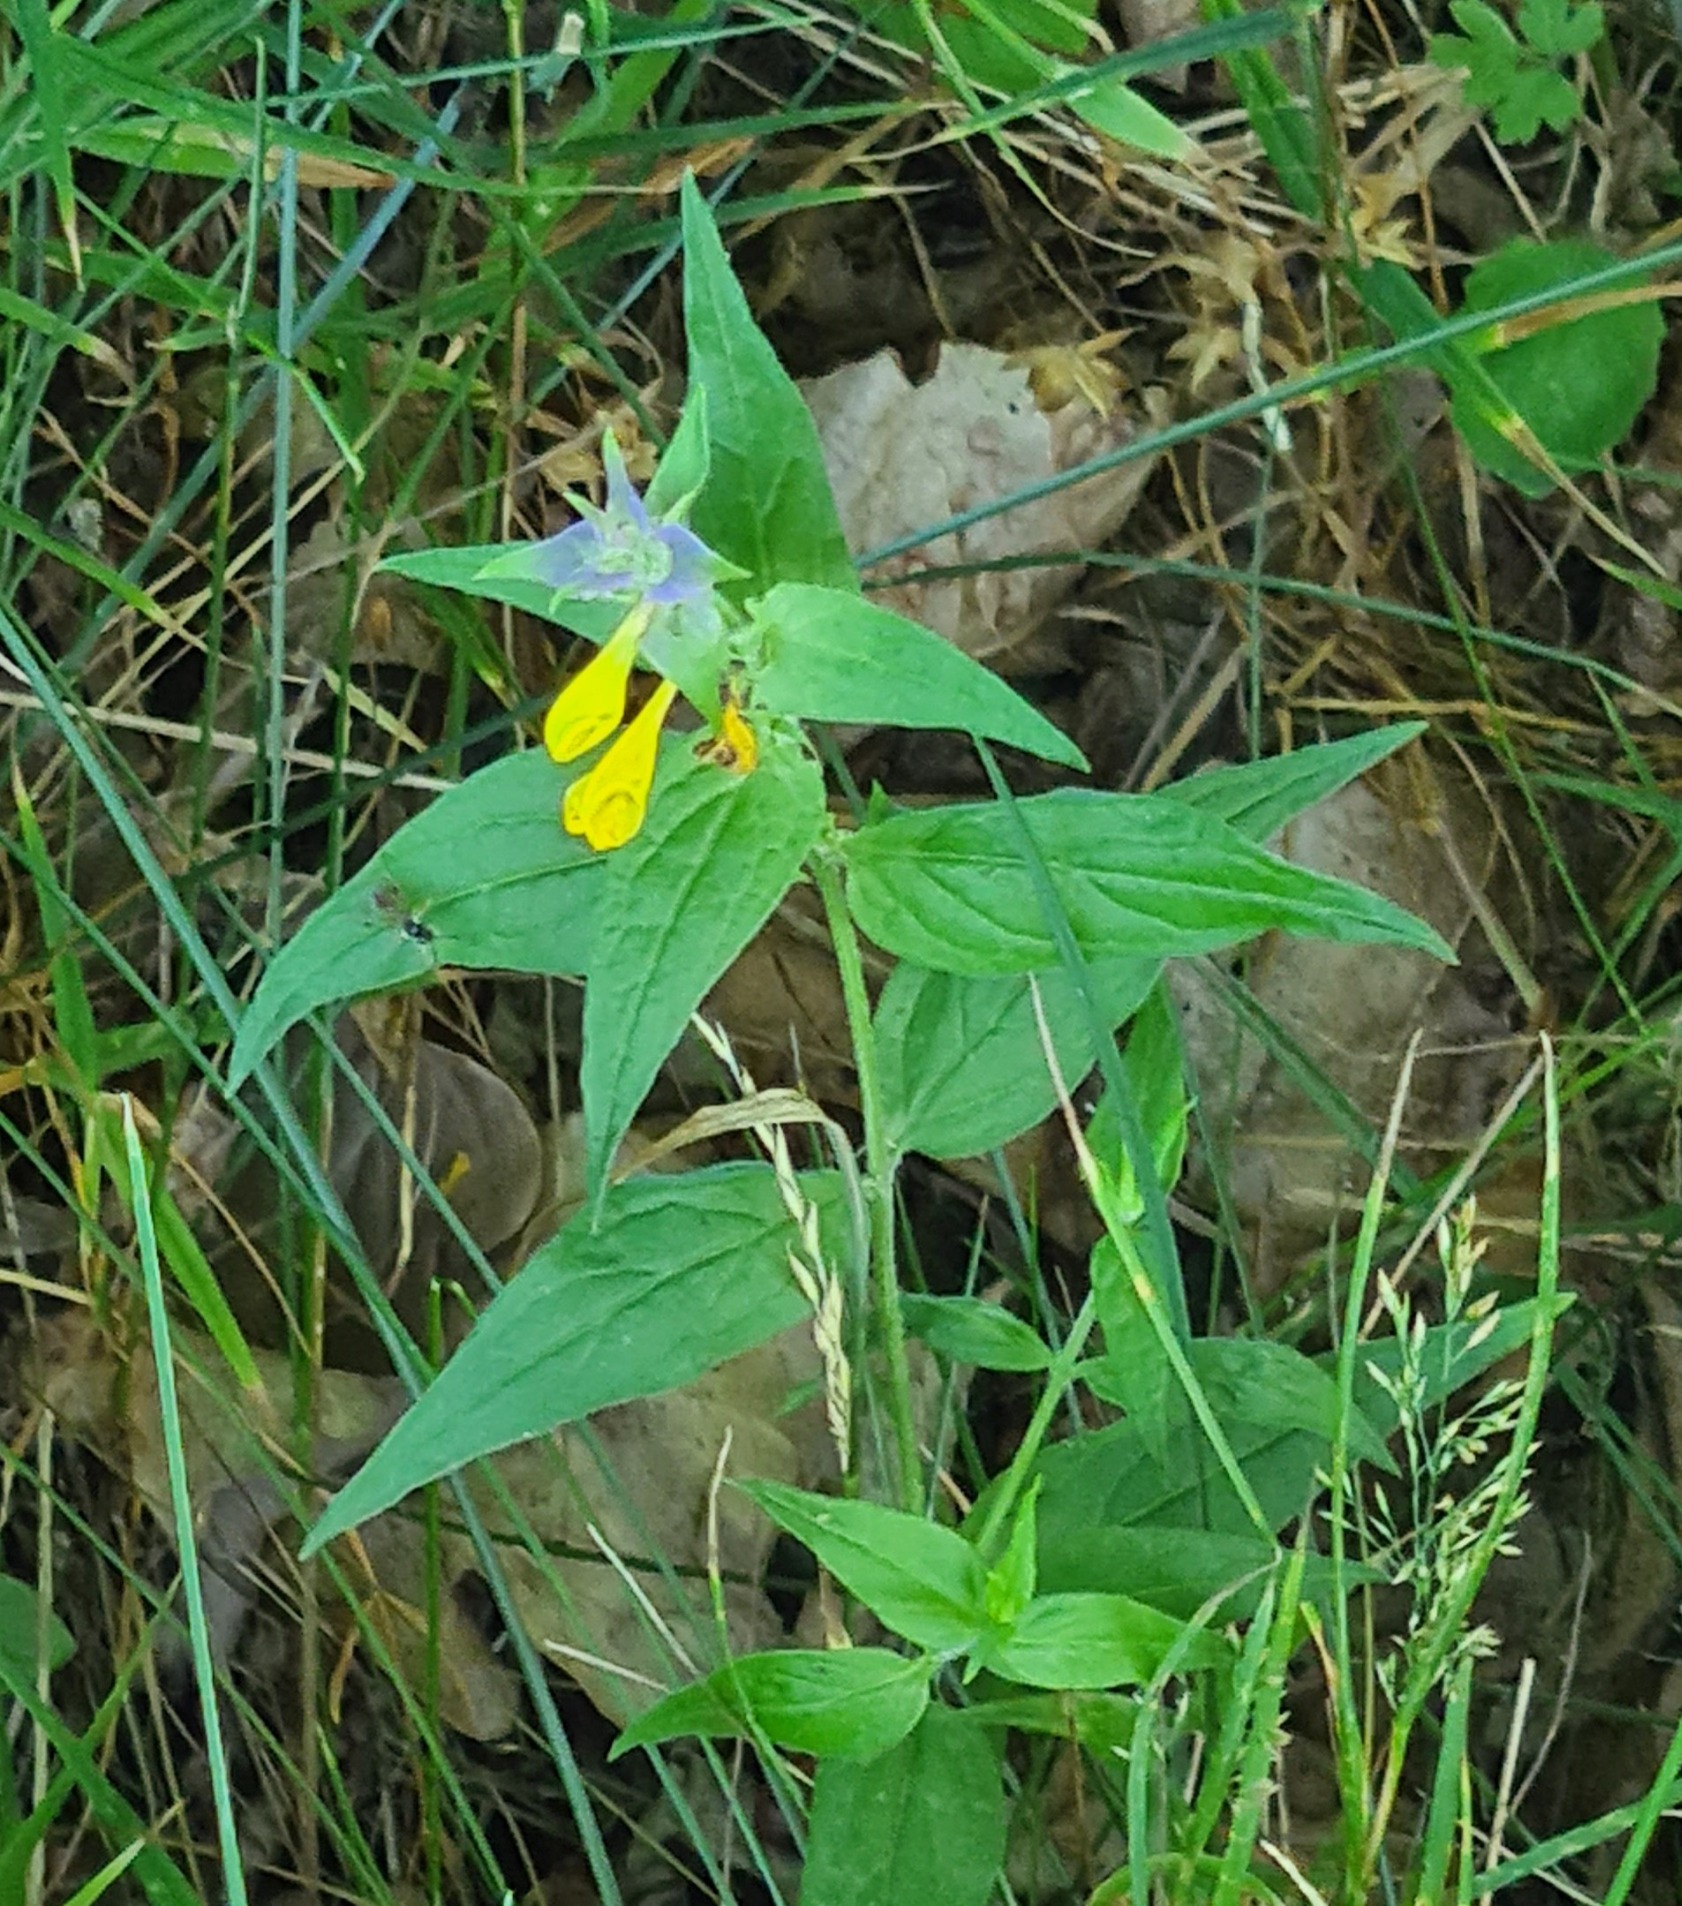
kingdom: Plantae
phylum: Tracheophyta
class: Magnoliopsida
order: Lamiales
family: Orobanchaceae
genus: Melampyrum
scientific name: Melampyrum nemorosum
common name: Blåtoppet kohvede
